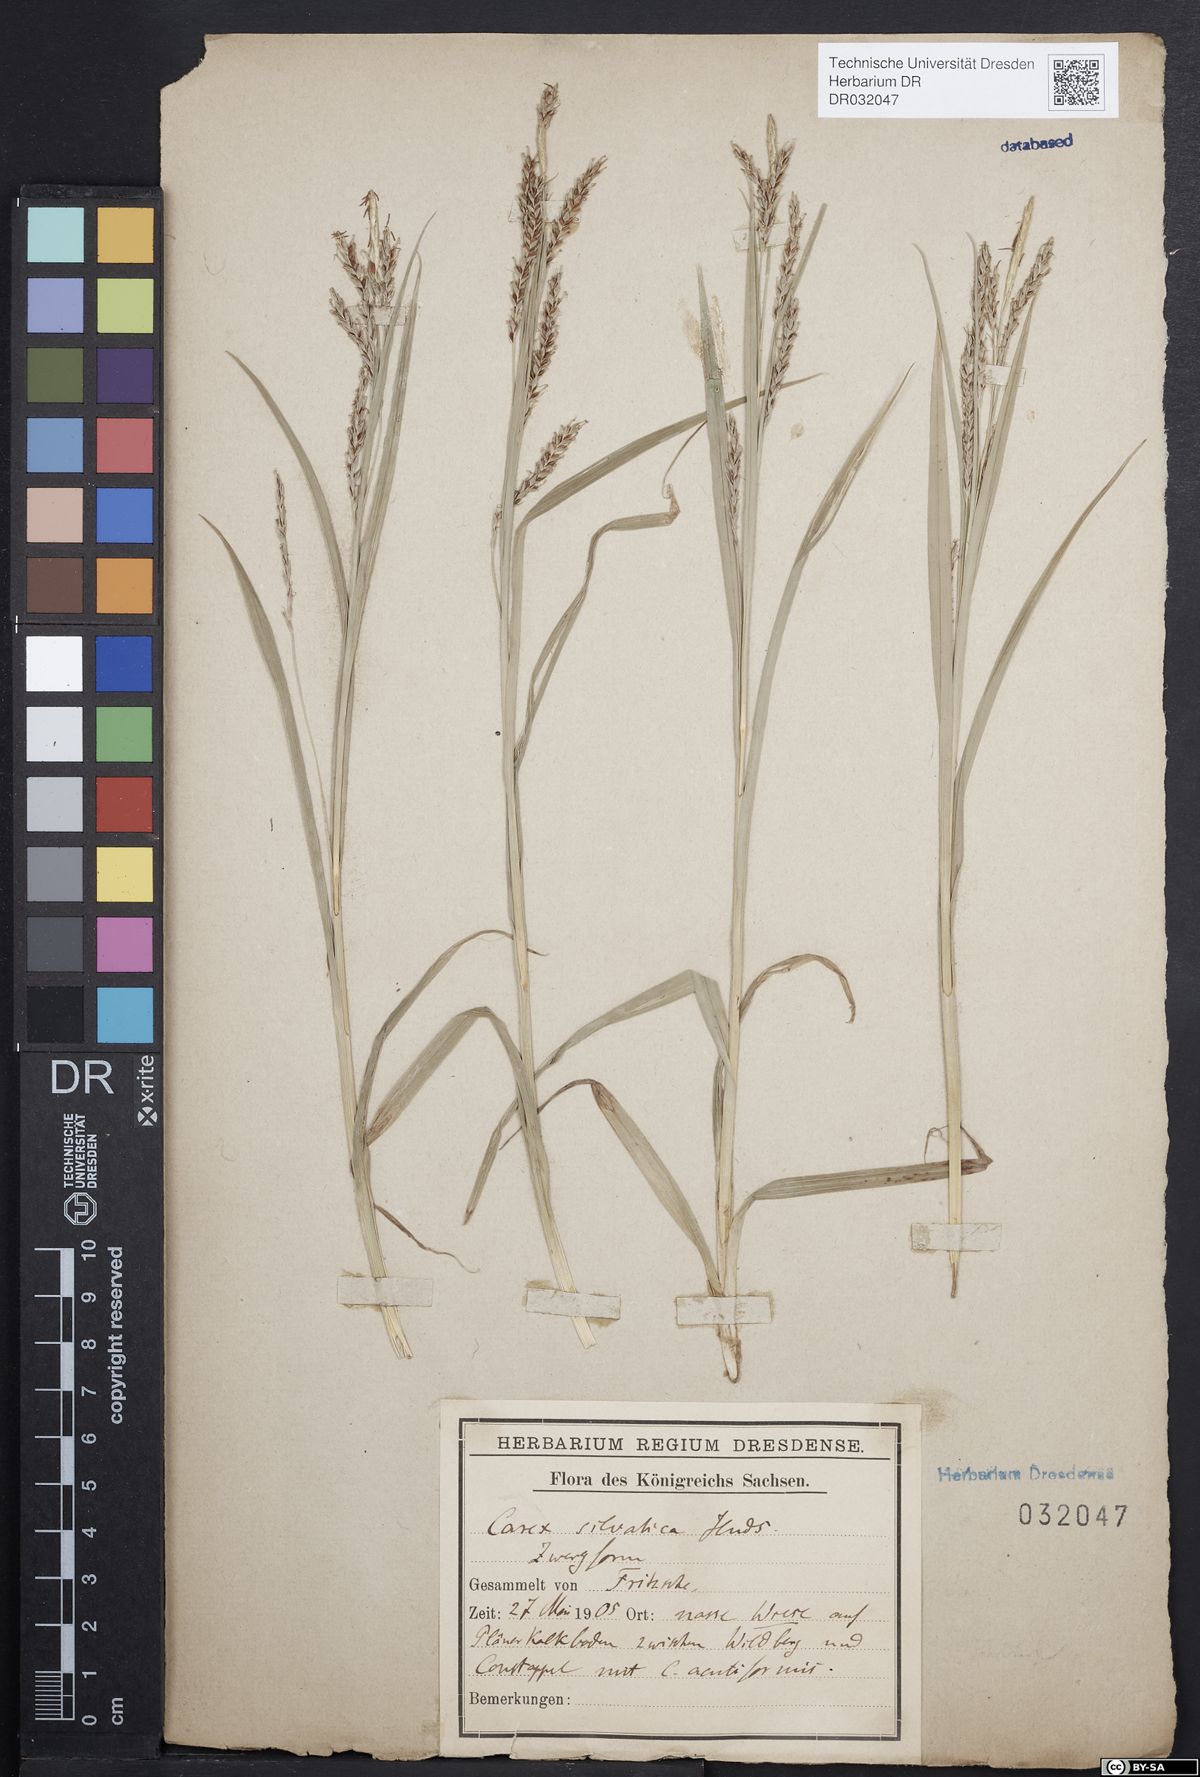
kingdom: Plantae
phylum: Tracheophyta
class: Liliopsida
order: Poales
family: Cyperaceae
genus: Carex
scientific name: Carex sylvatica
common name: Wood-sedge
